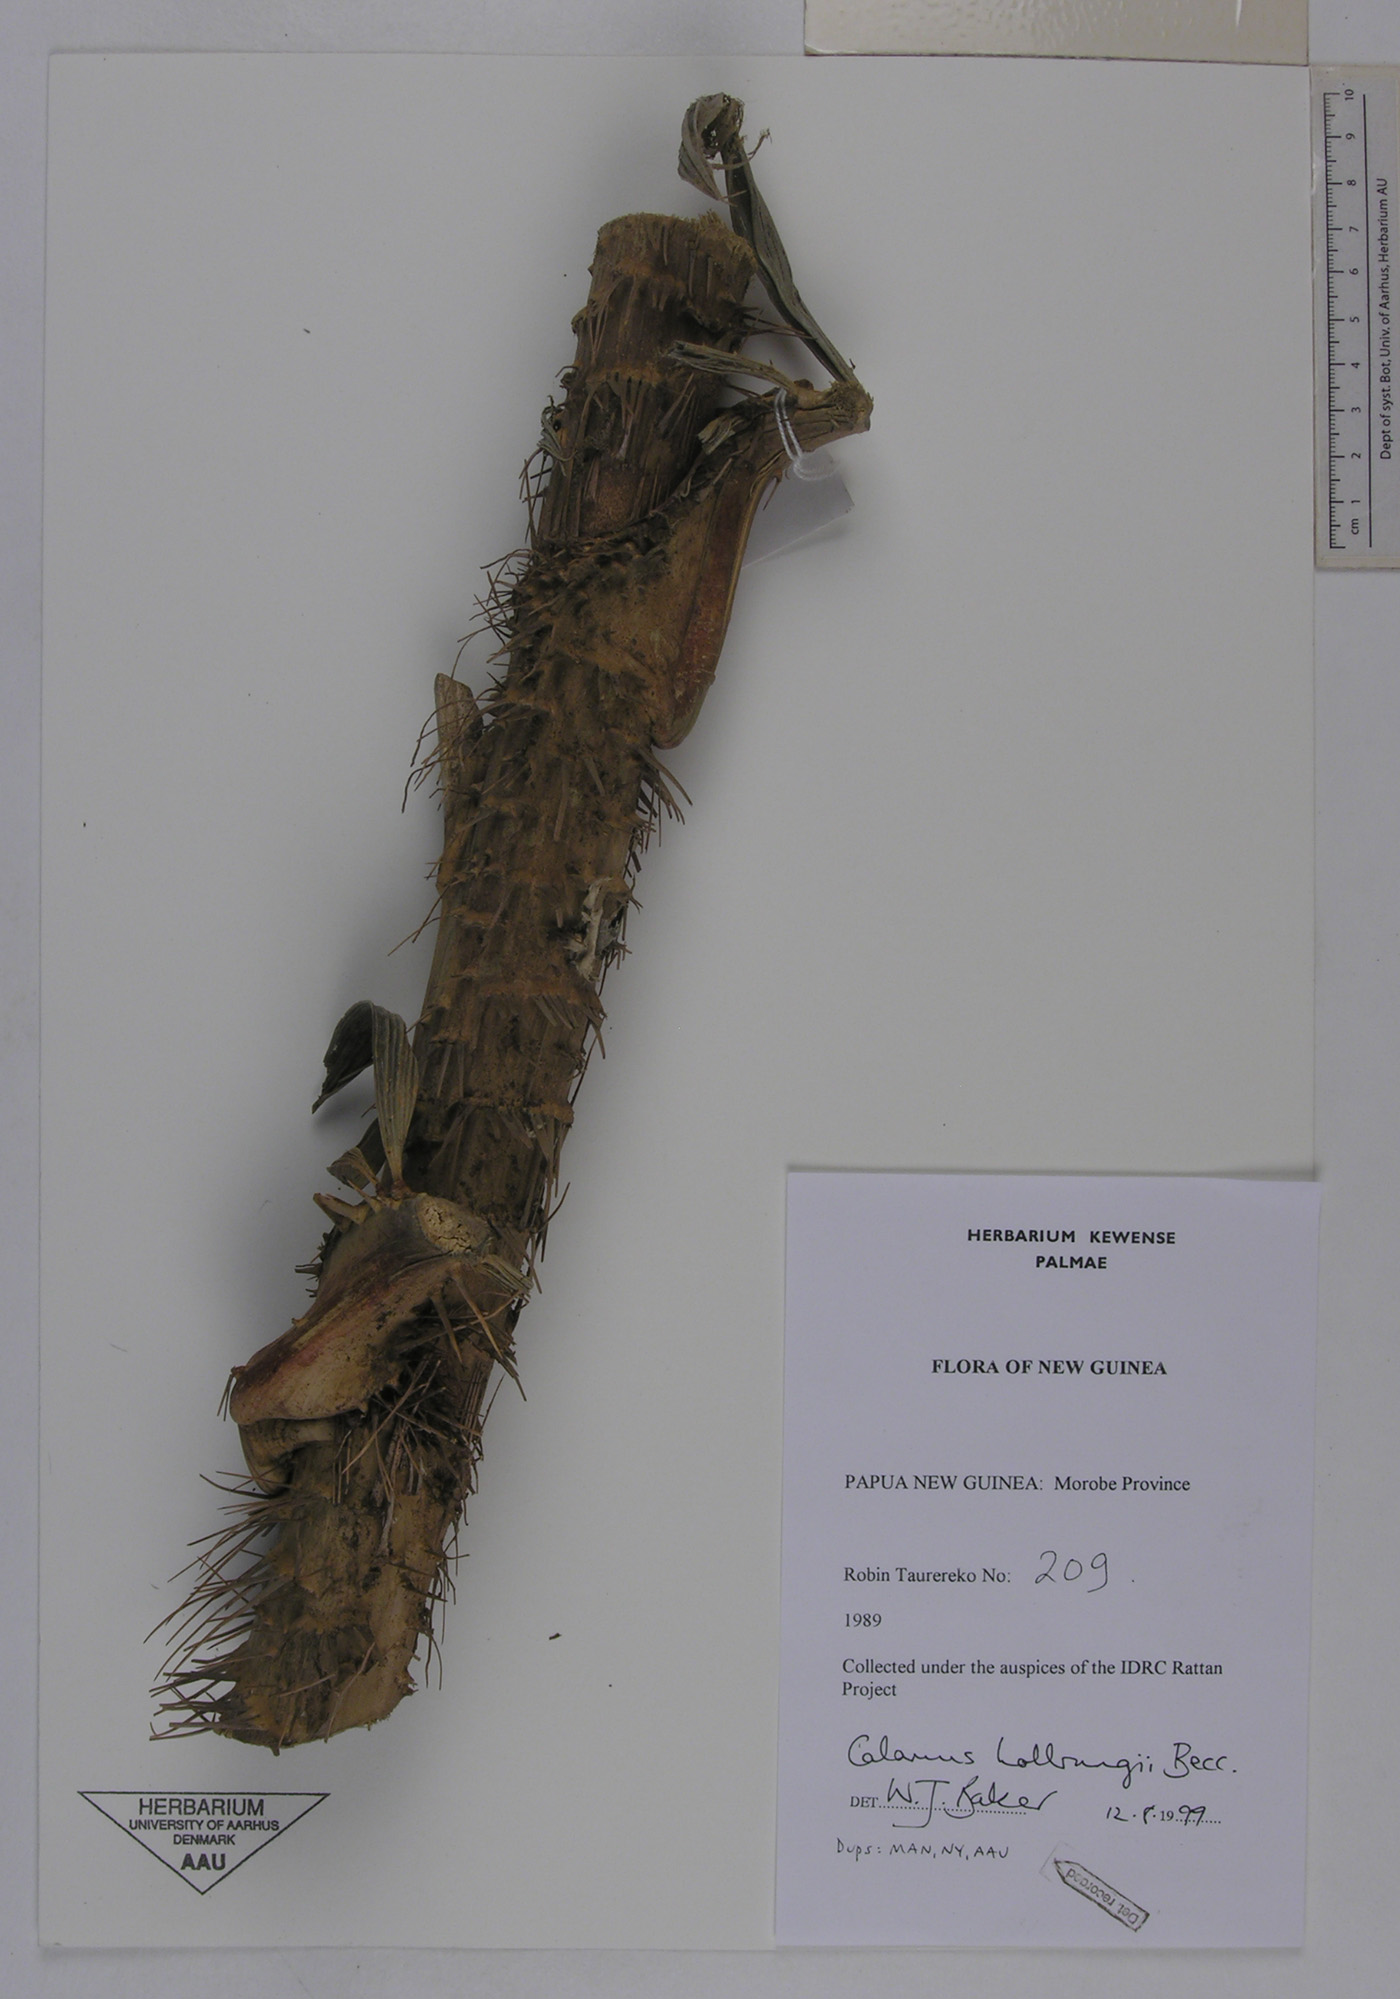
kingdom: Plantae
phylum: Tracheophyta
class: Liliopsida
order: Arecales
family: Arecaceae
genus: Calamus
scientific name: Calamus aruensis
